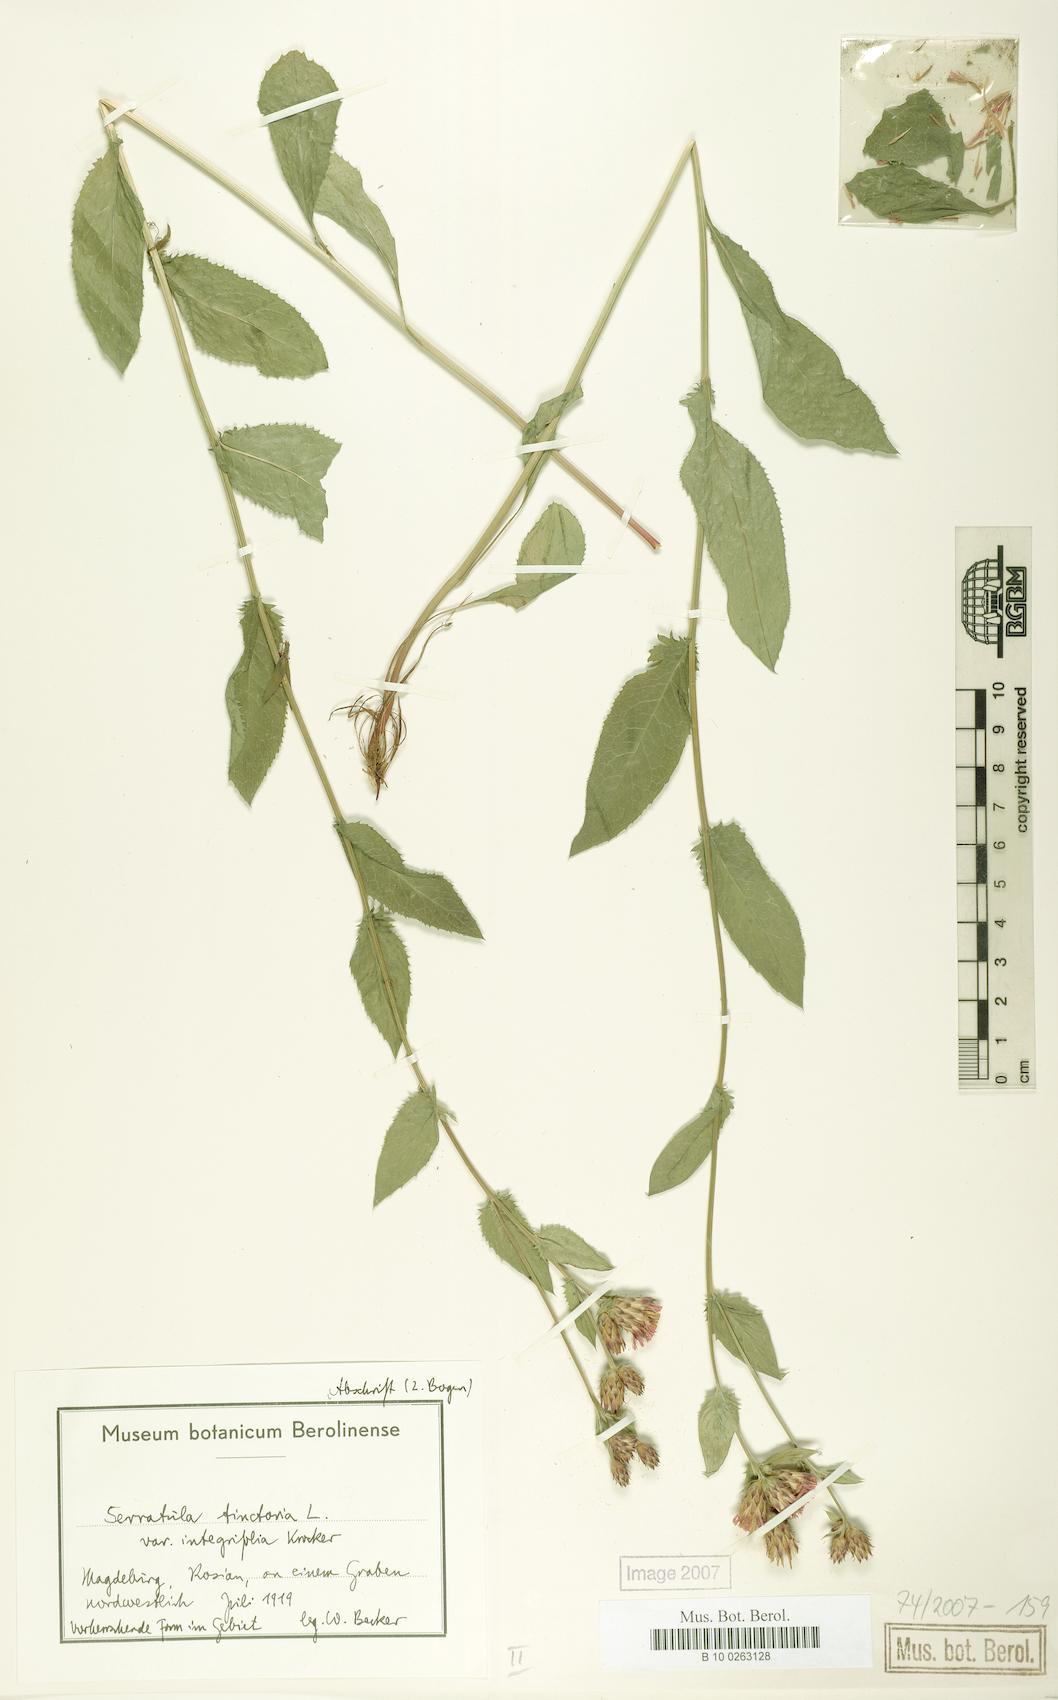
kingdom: Plantae
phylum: Tracheophyta
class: Magnoliopsida
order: Asterales
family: Asteraceae
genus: Serratula
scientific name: Serratula tinctoria
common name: Saw-wort
